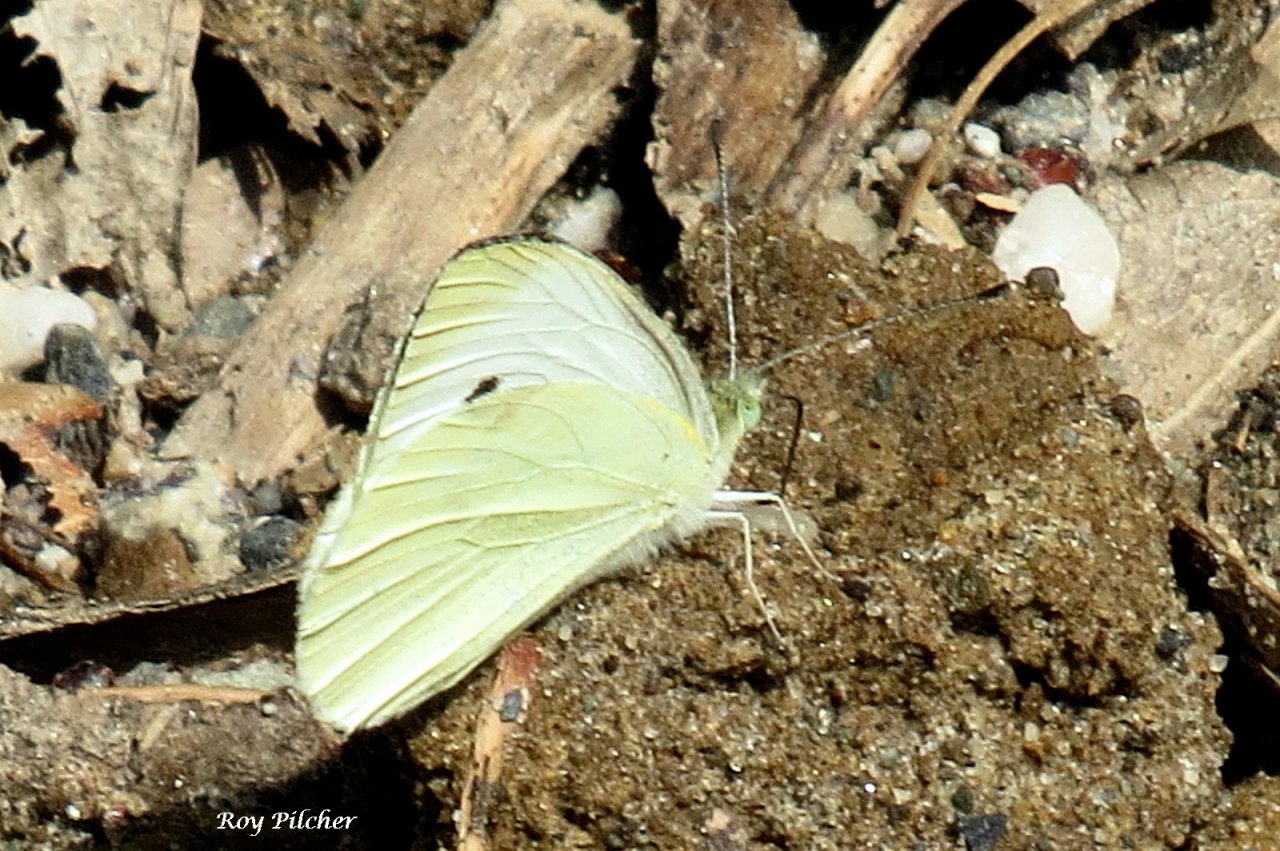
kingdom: Animalia
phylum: Arthropoda
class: Insecta
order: Lepidoptera
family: Pieridae
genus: Pieris
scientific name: Pieris rapae
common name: Cabbage White
